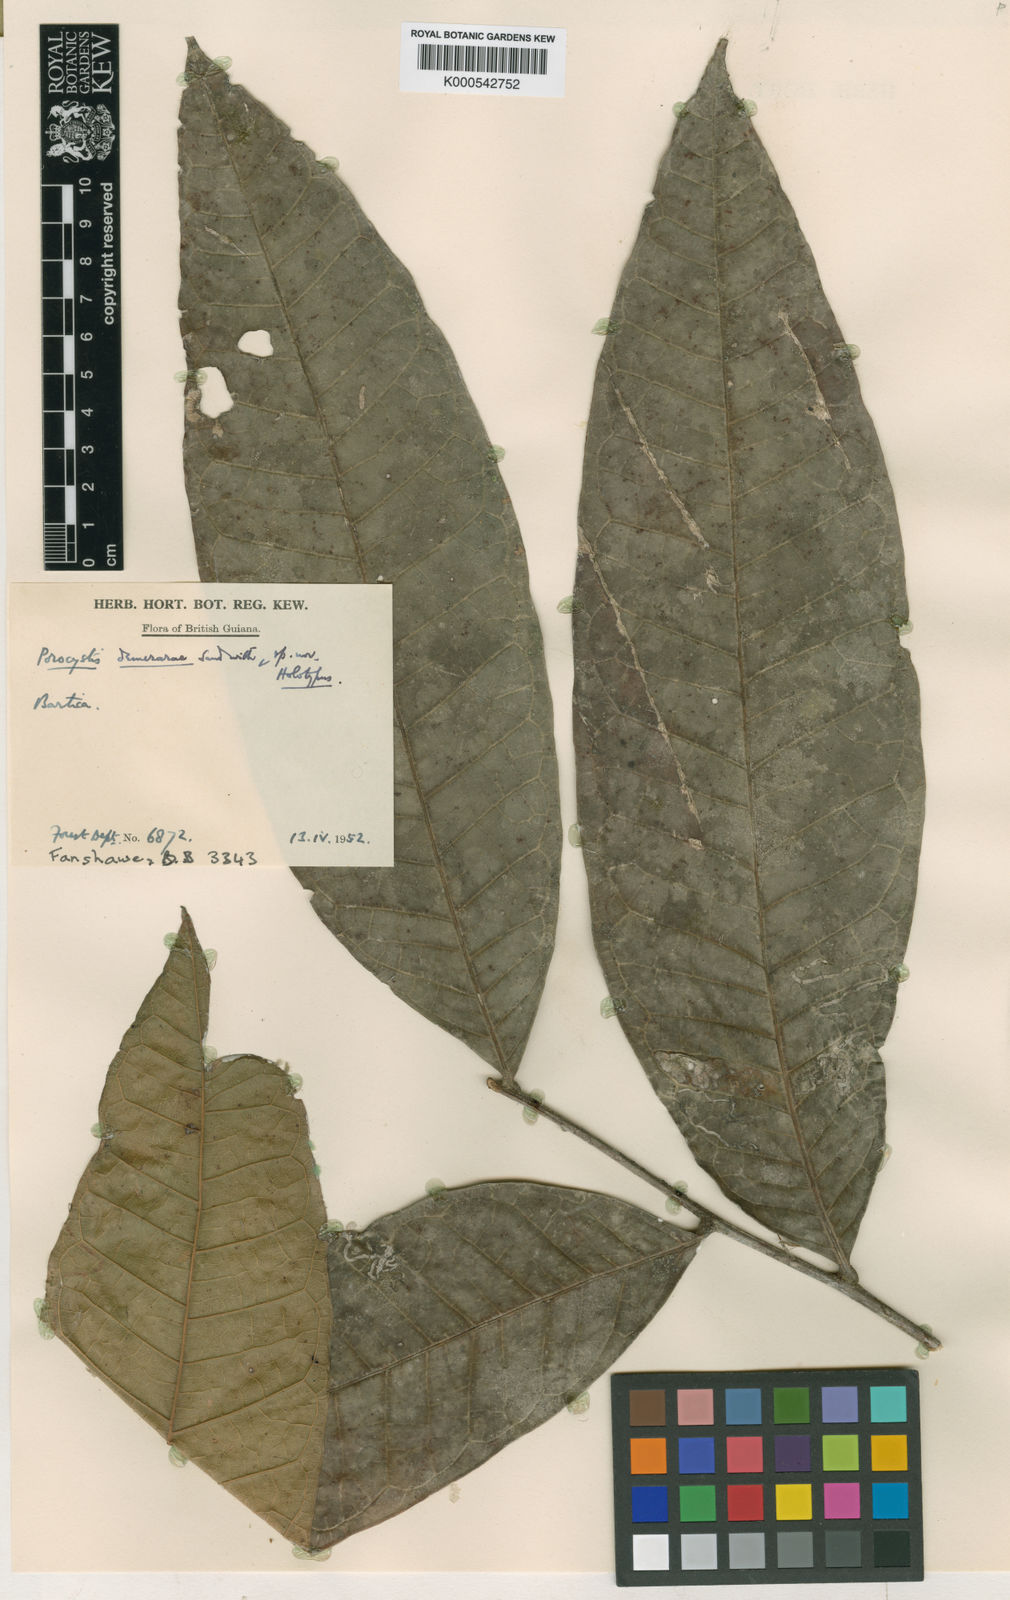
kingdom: Plantae
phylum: Tracheophyta
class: Magnoliopsida
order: Sapindales
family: Sapindaceae
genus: Porocystis
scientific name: Porocystis toulicioides
